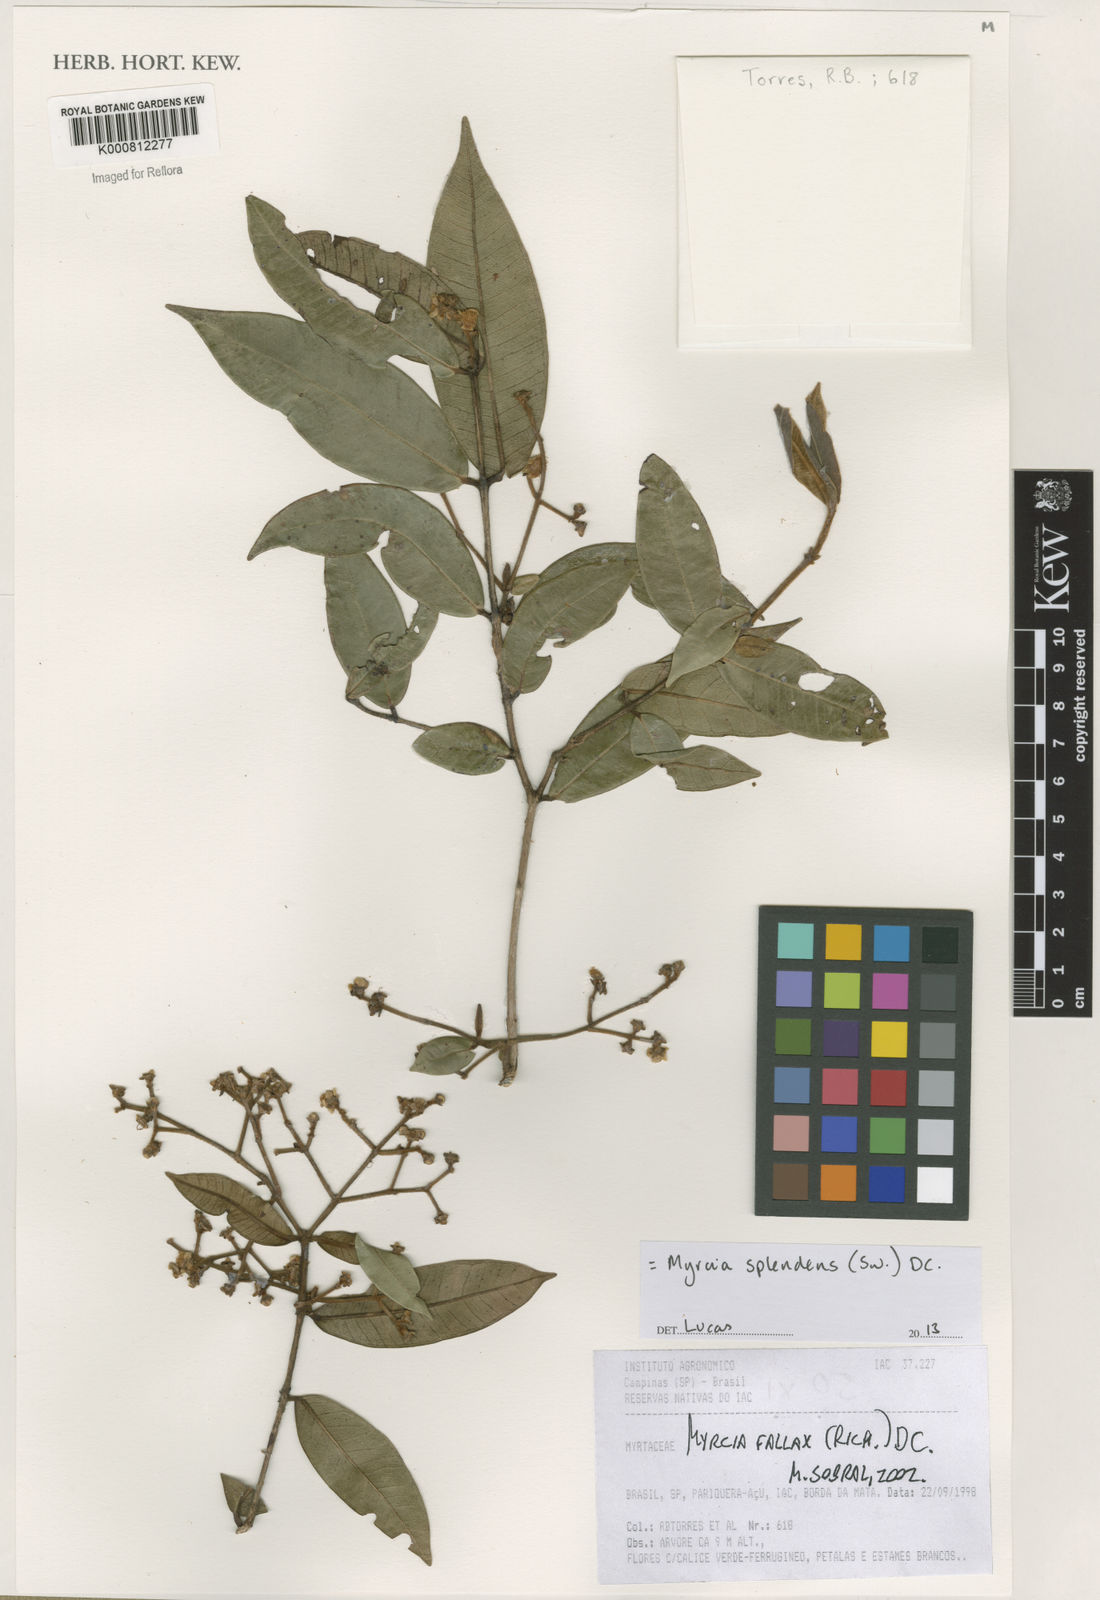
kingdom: Plantae
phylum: Tracheophyta
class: Magnoliopsida
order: Myrtales
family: Myrtaceae
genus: Myrcia
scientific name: Myrcia splendens
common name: Surinam cherry
